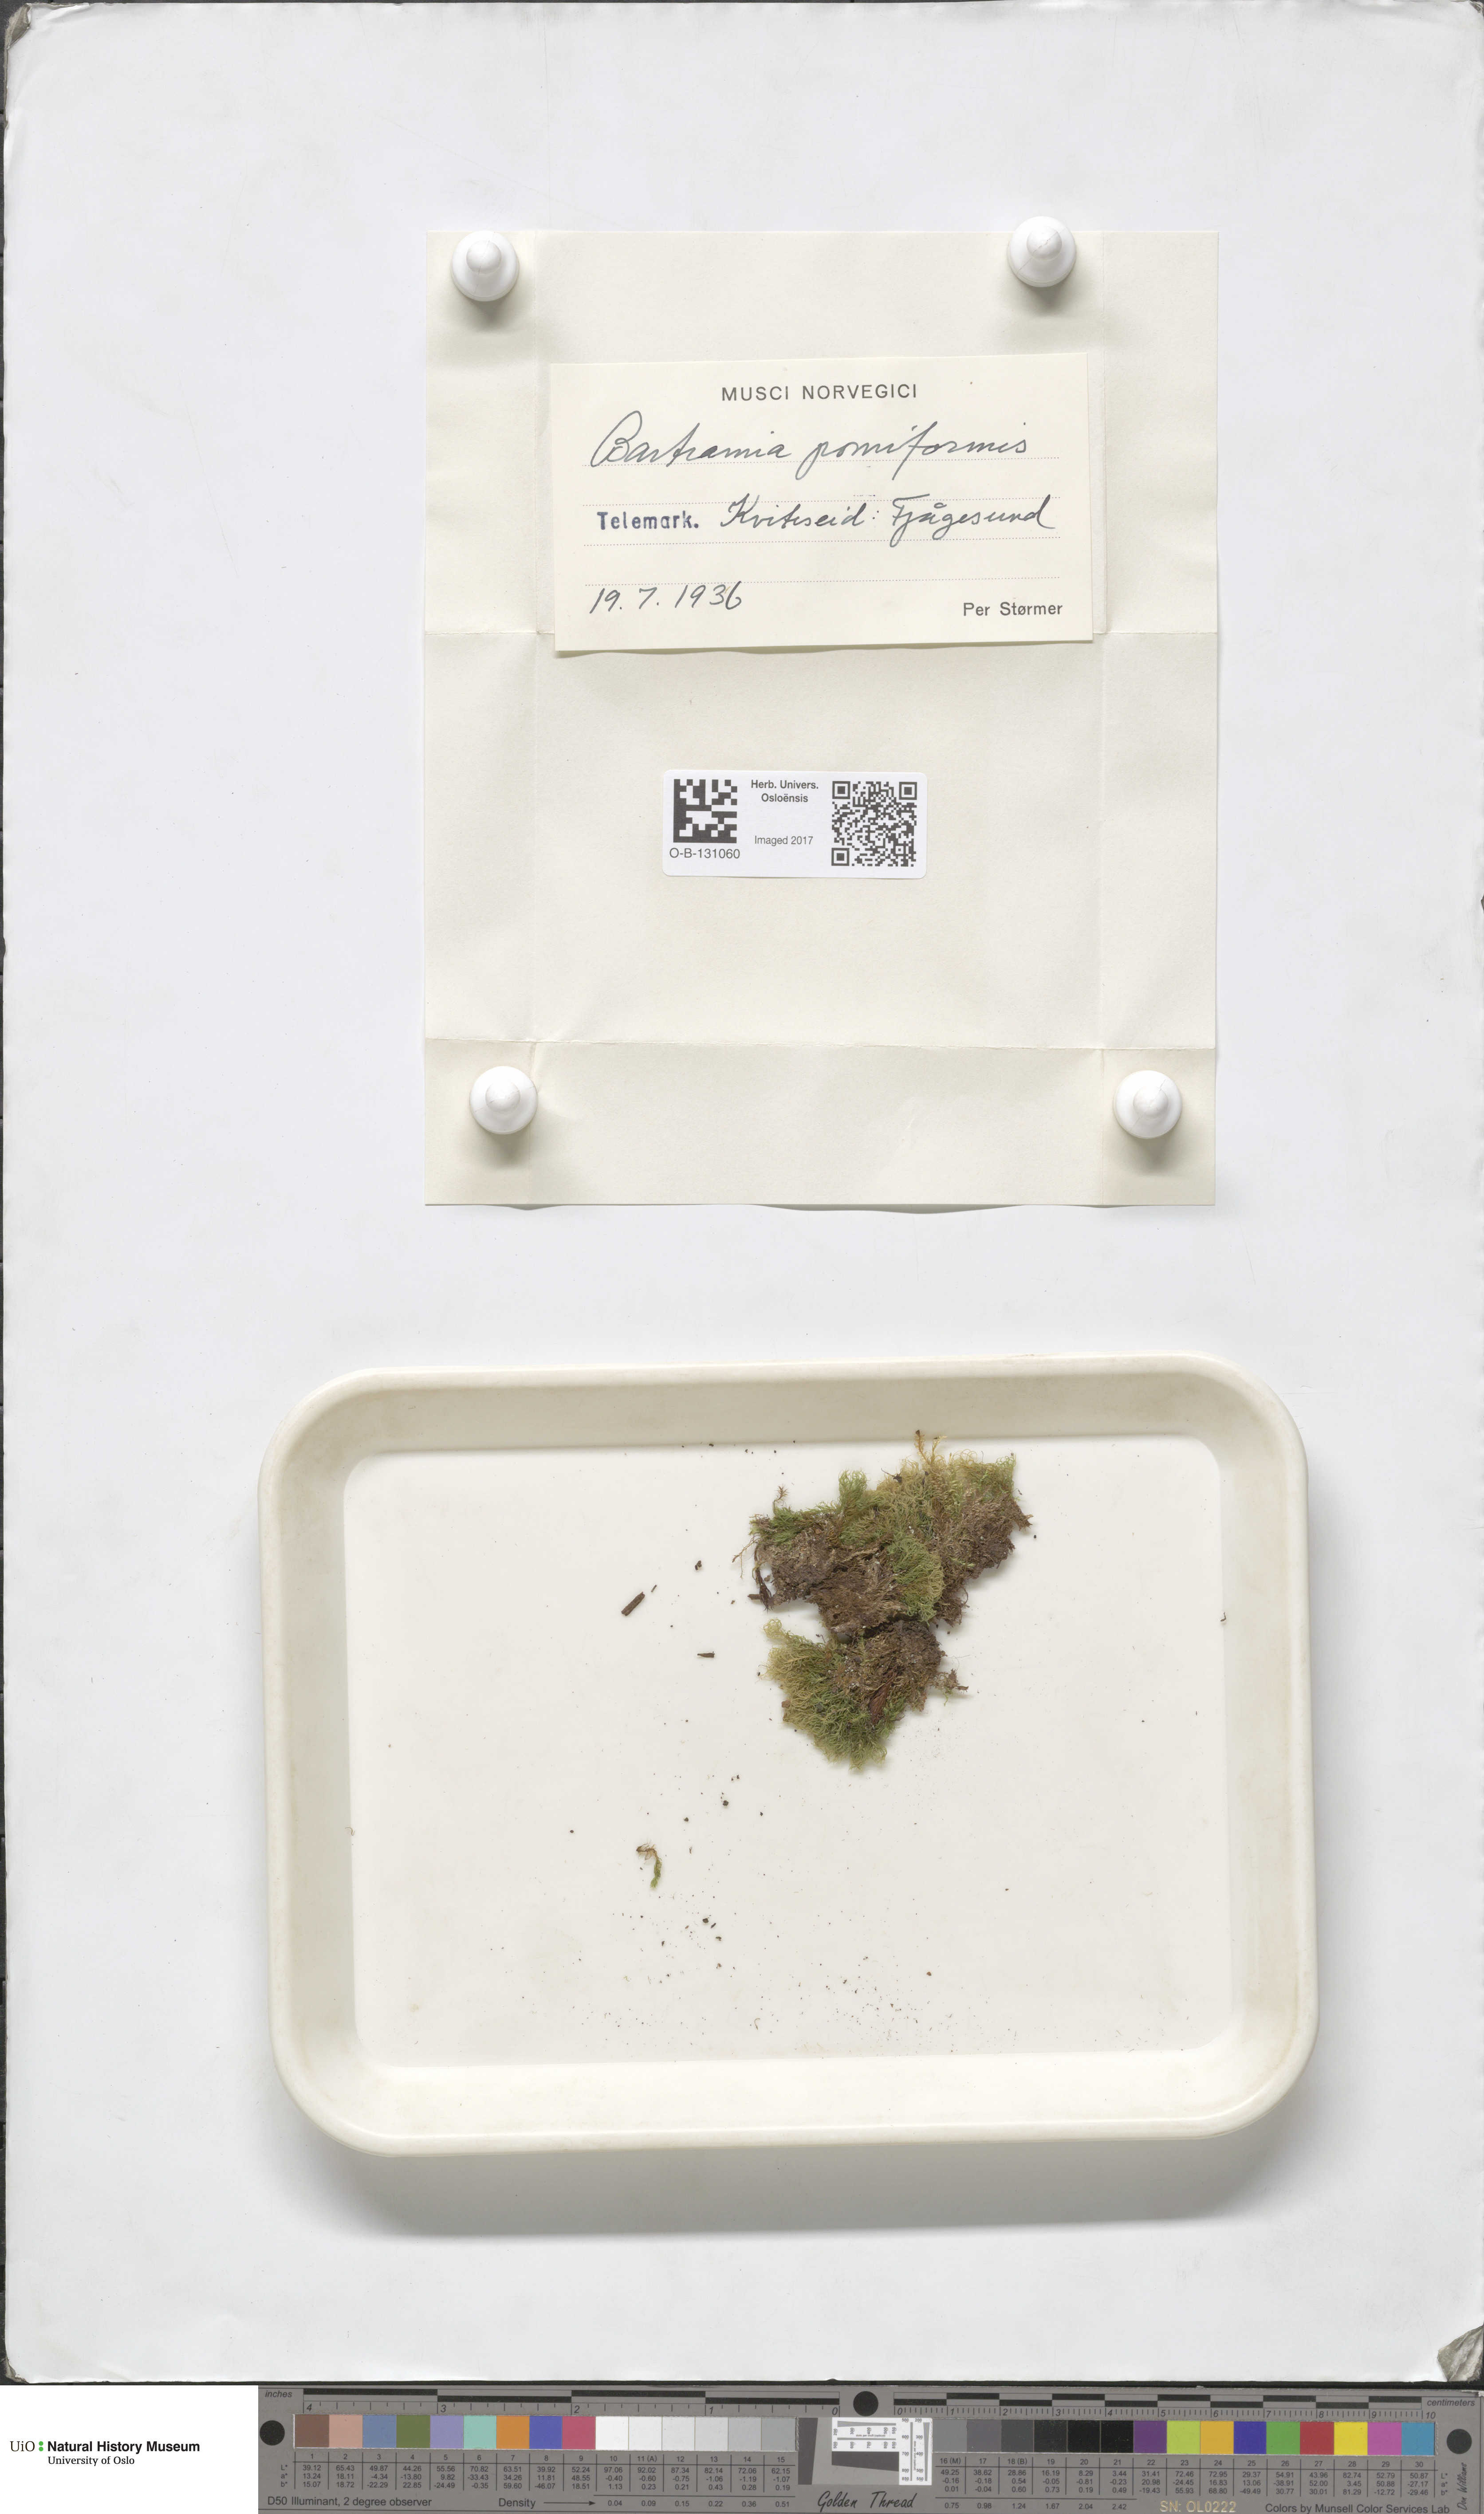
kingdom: Plantae
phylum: Bryophyta
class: Bryopsida
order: Bartramiales
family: Bartramiaceae
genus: Bartramia
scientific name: Bartramia pomiformis
